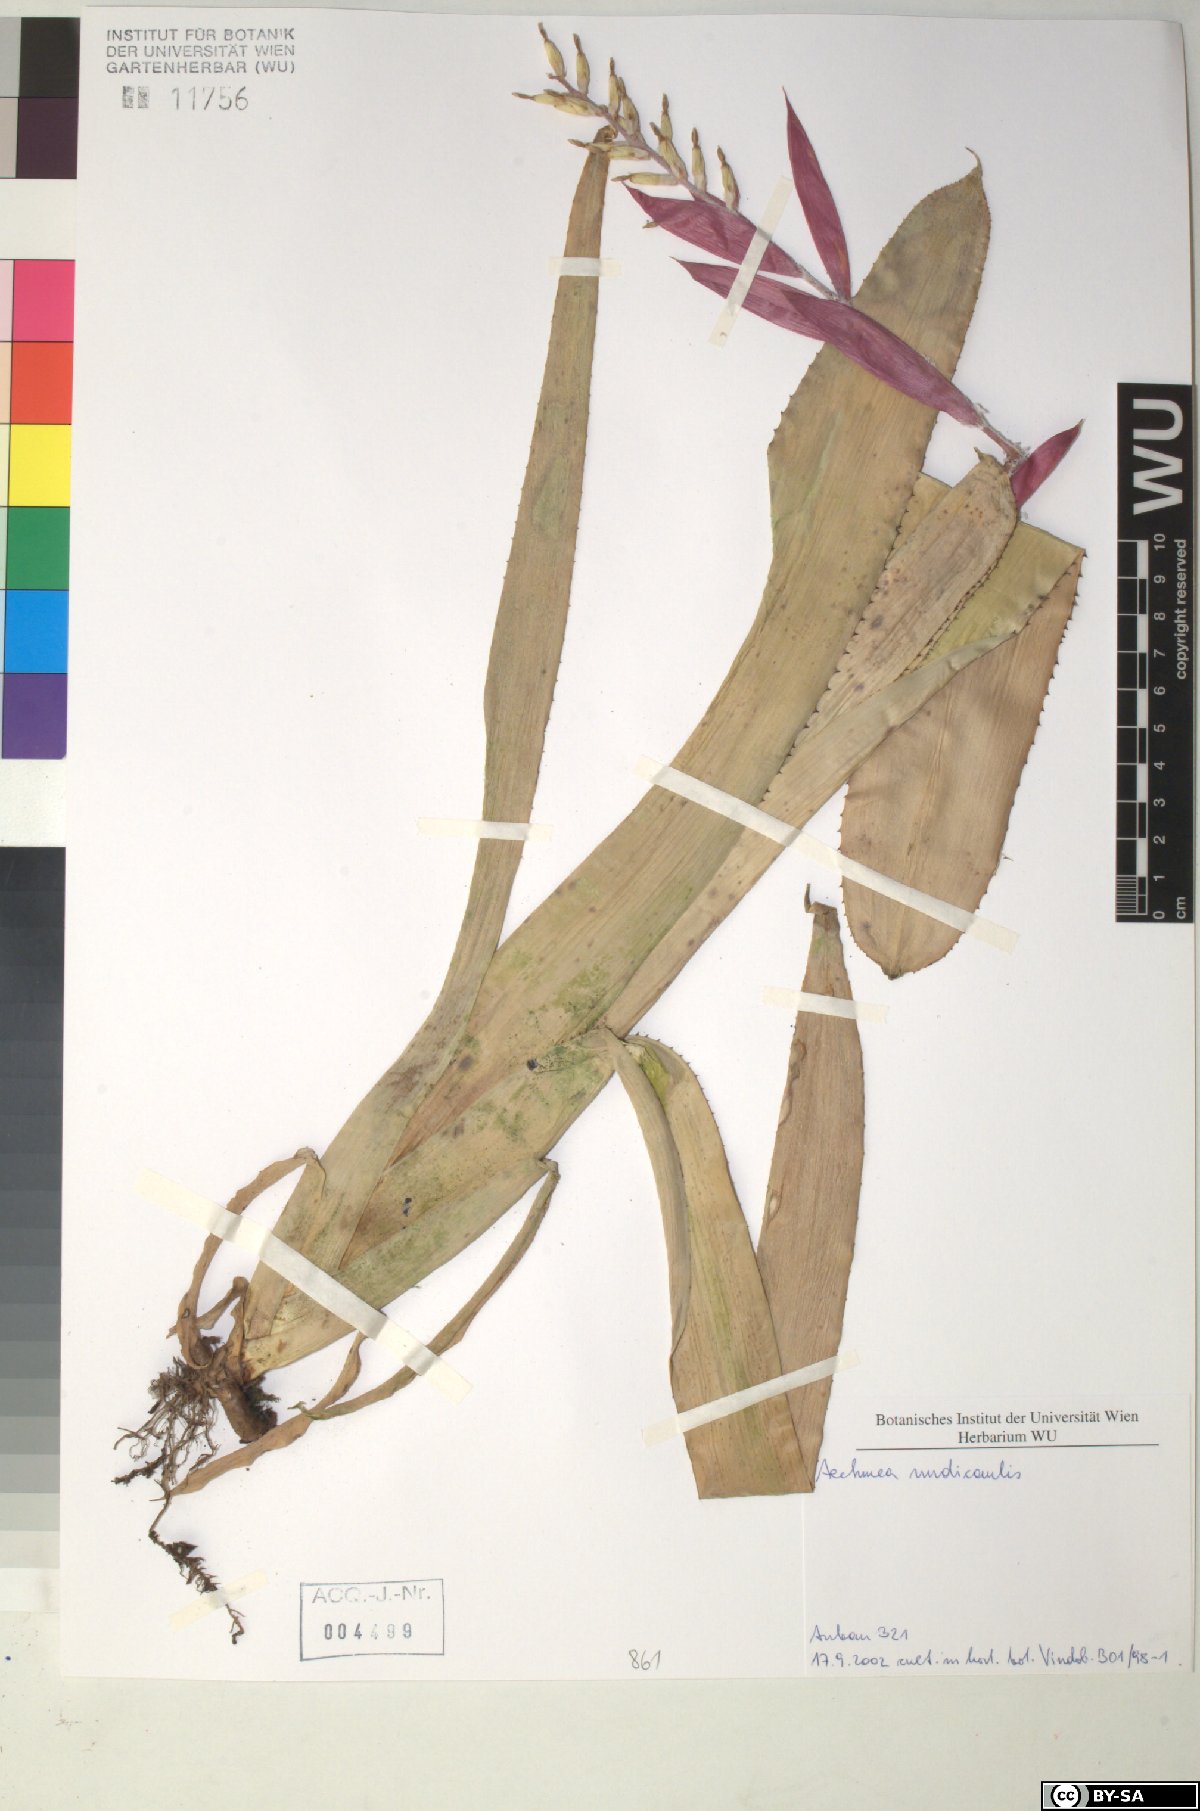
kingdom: Plantae
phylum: Tracheophyta
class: Liliopsida
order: Poales
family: Bromeliaceae
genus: Aechmea
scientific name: Aechmea nudicaulis
